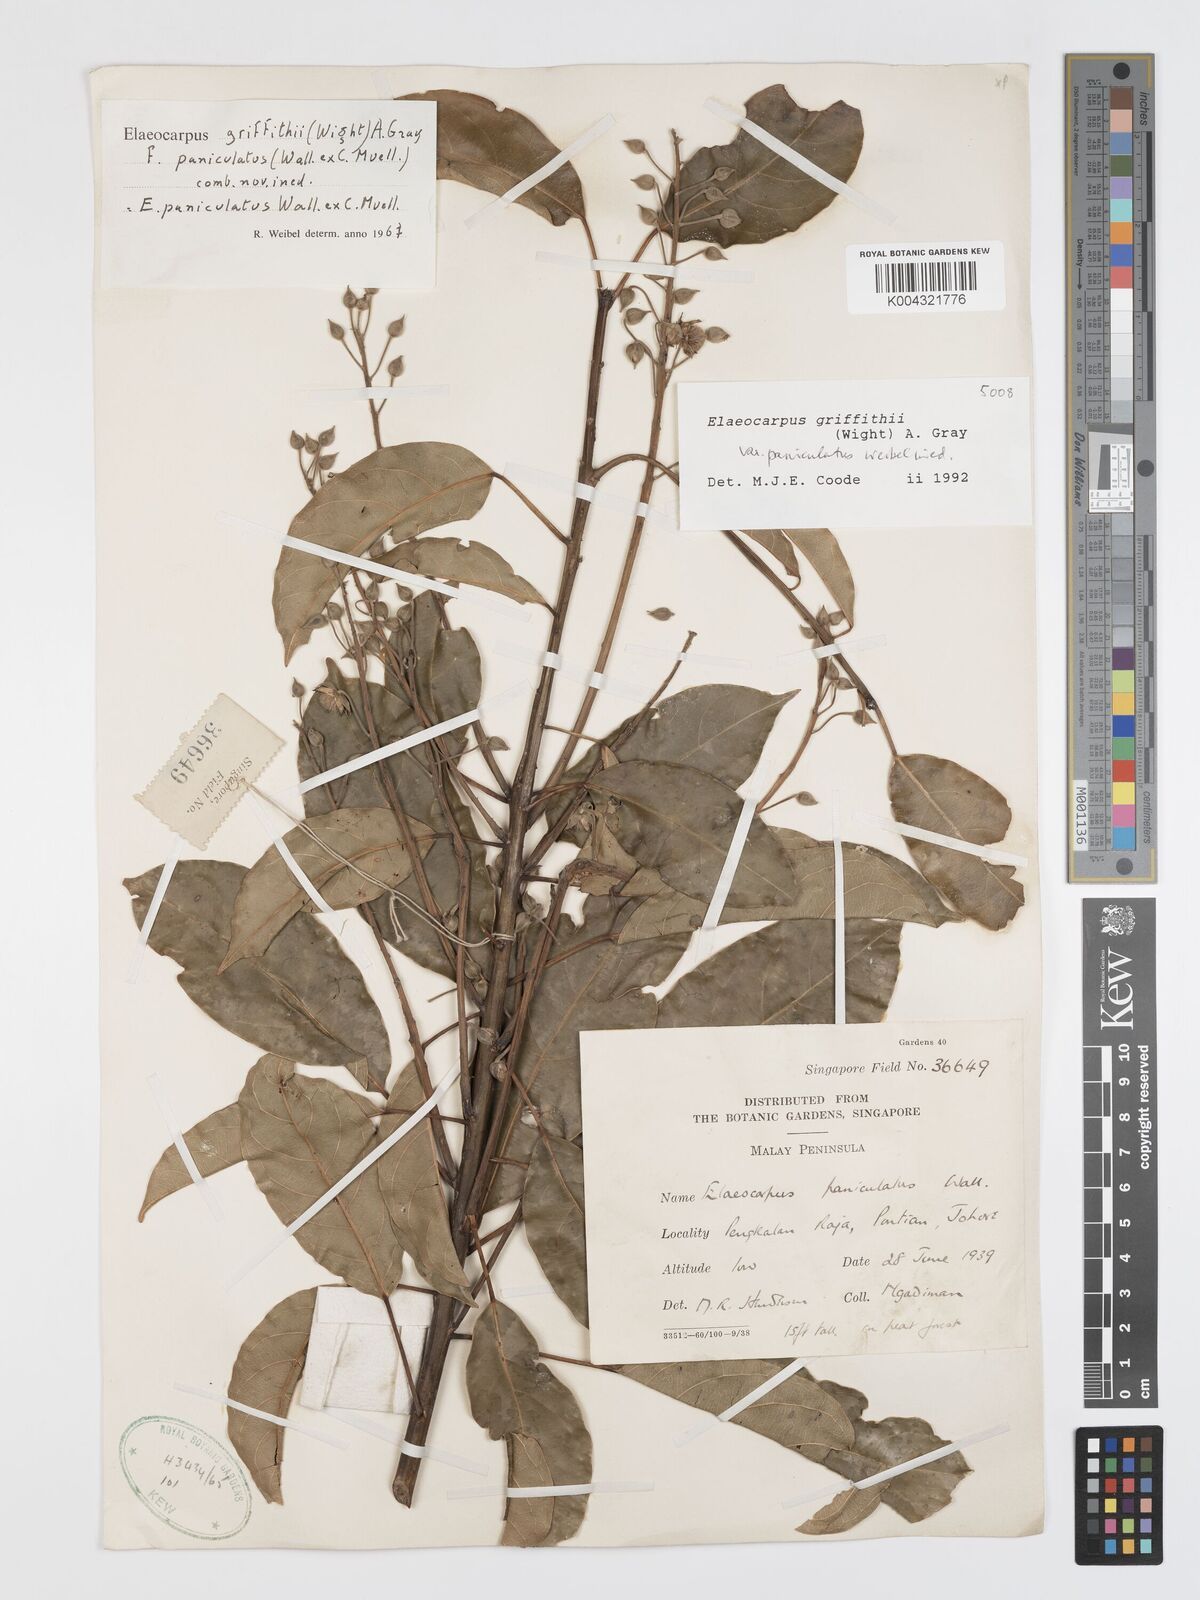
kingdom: Plantae
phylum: Tracheophyta
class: Magnoliopsida
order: Oxalidales
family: Elaeocarpaceae
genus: Elaeocarpus
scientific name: Elaeocarpus griffithii
